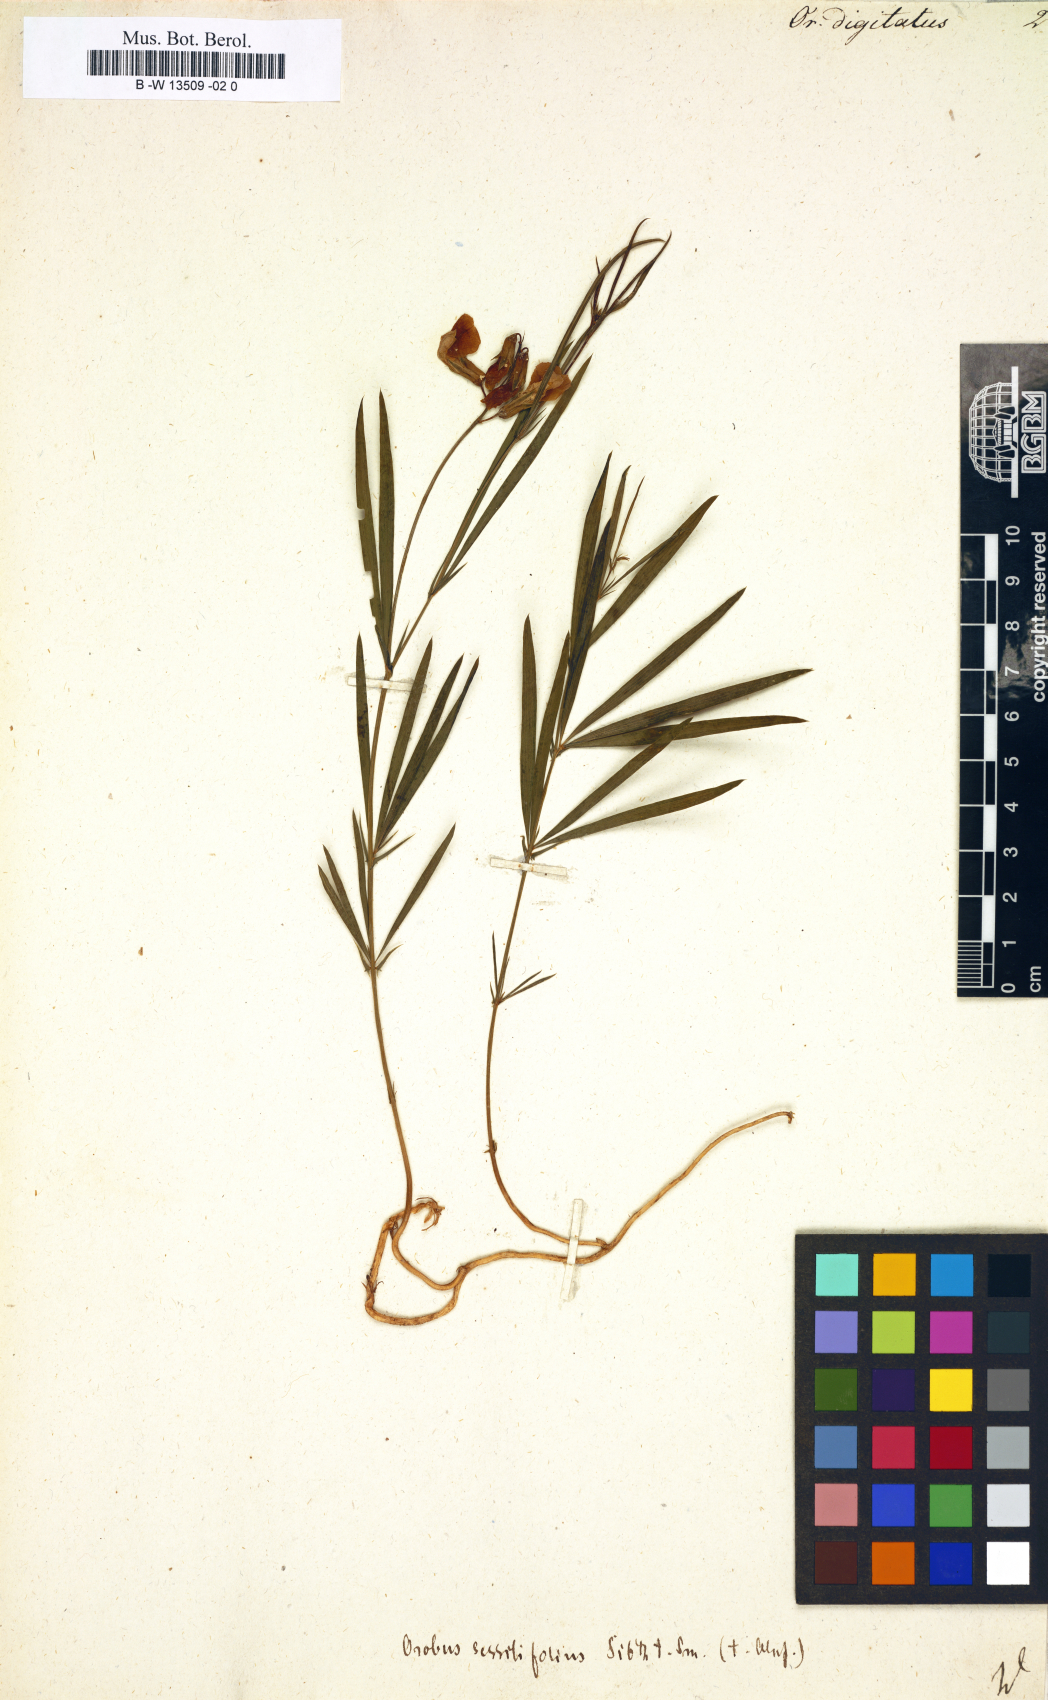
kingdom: Plantae
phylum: Tracheophyta
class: Magnoliopsida
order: Fabales
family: Fabaceae
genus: Lathyrus
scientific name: Lathyrus digitatus
